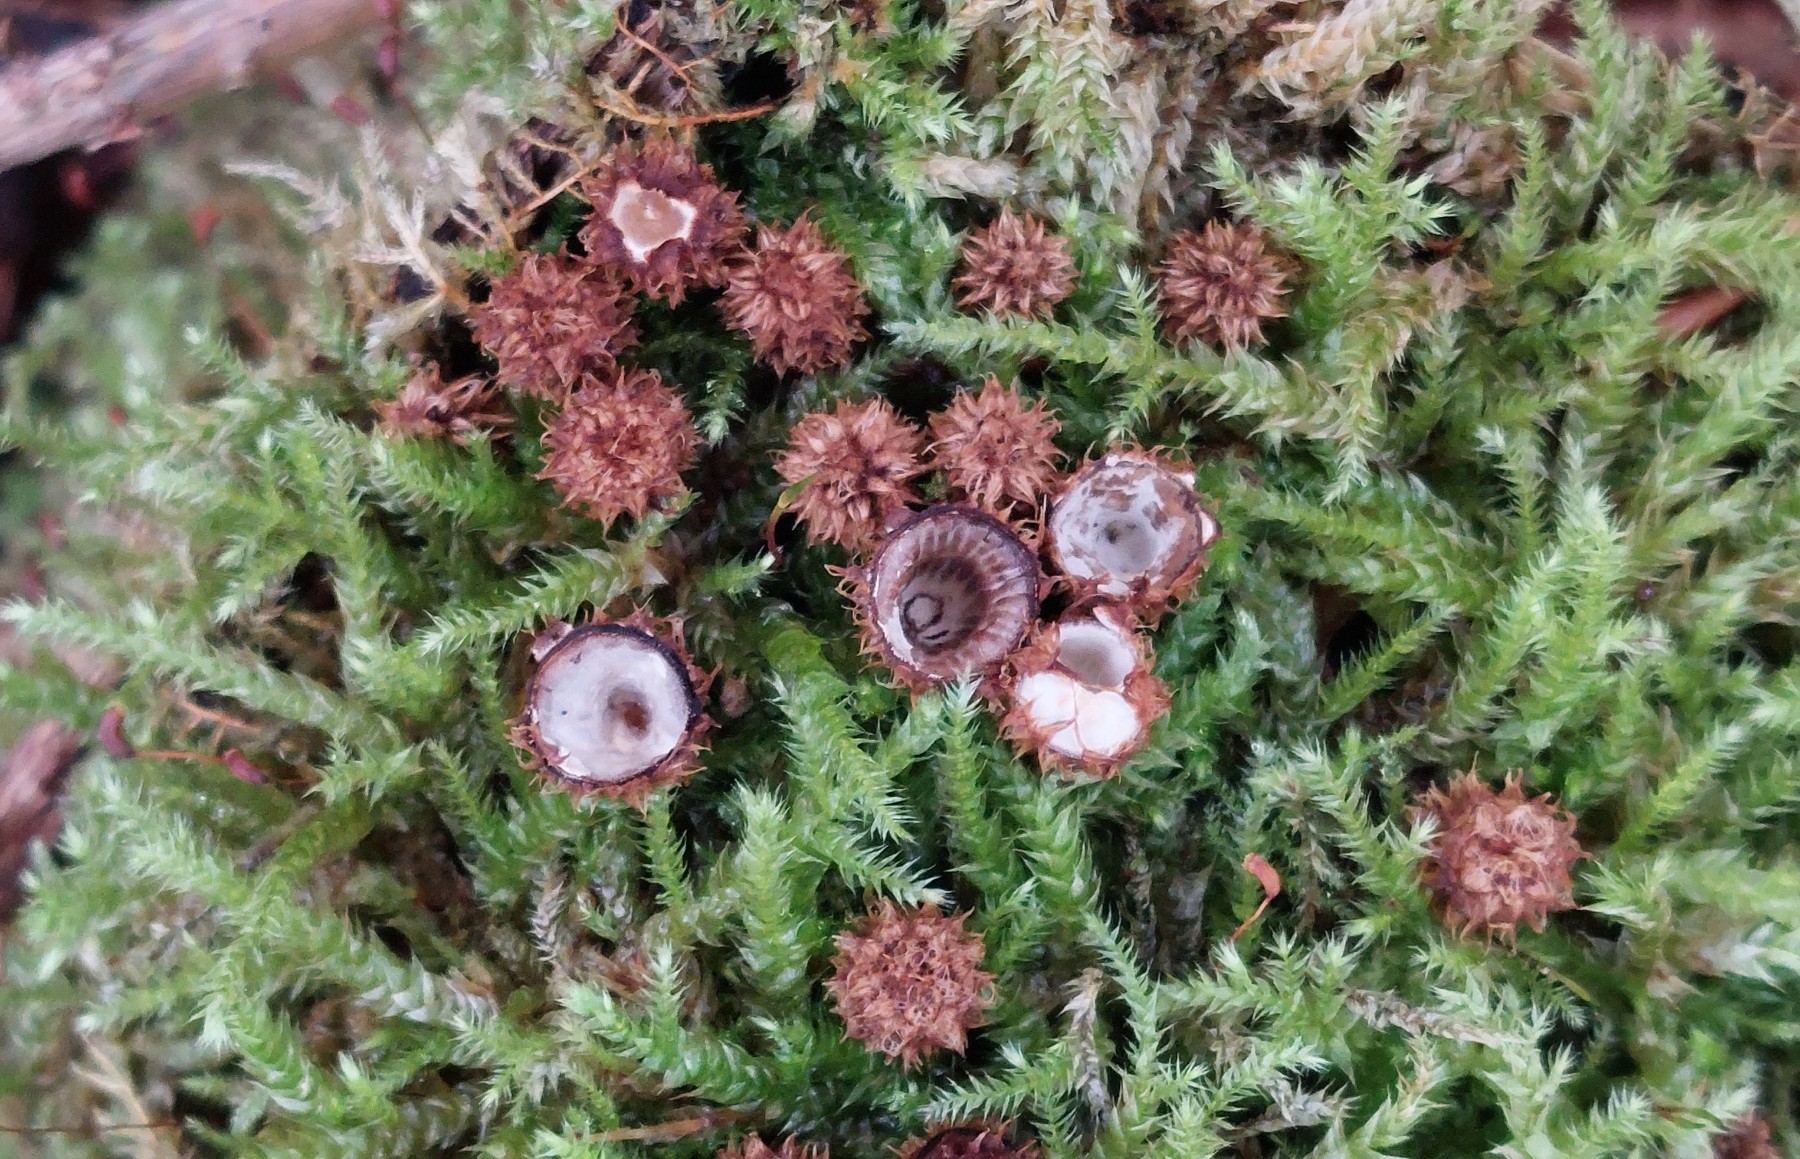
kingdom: Fungi
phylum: Basidiomycota
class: Agaricomycetes
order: Agaricales
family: Agaricaceae
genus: Cyathus
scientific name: Cyathus striatus
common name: stribet redesvamp
